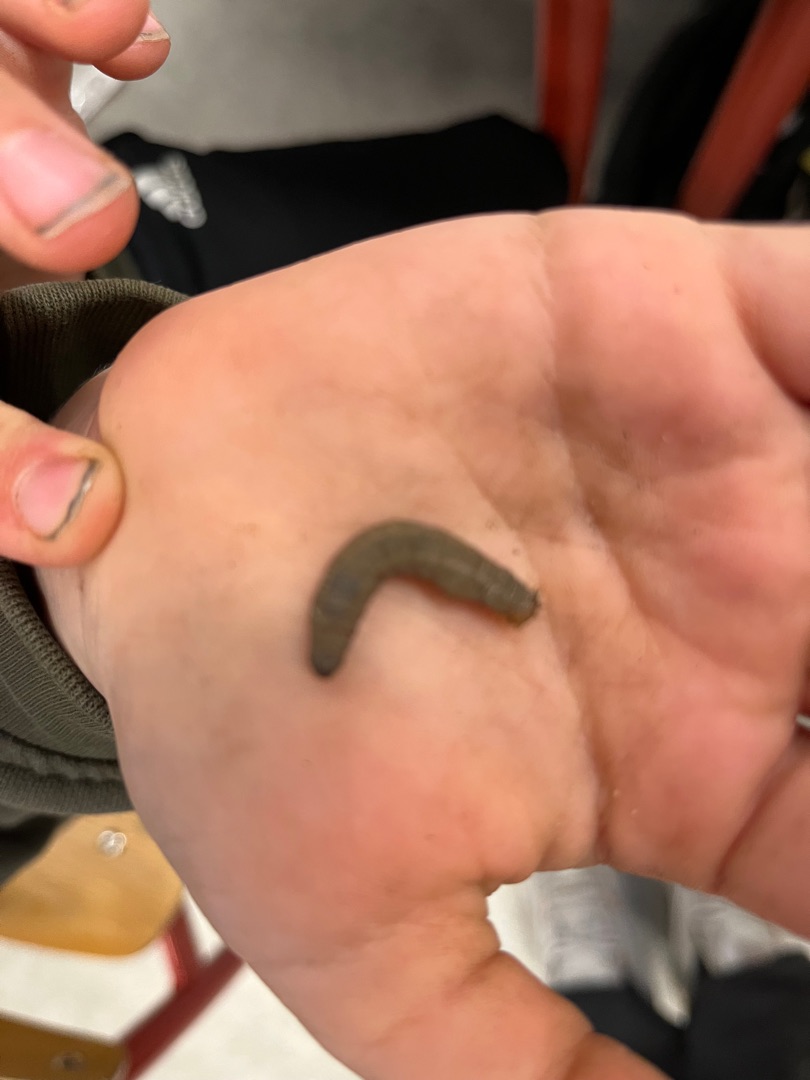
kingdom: Animalia
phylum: Arthropoda
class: Insecta
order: Diptera
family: Tipulidae
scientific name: Tipulidae
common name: Stankelben
